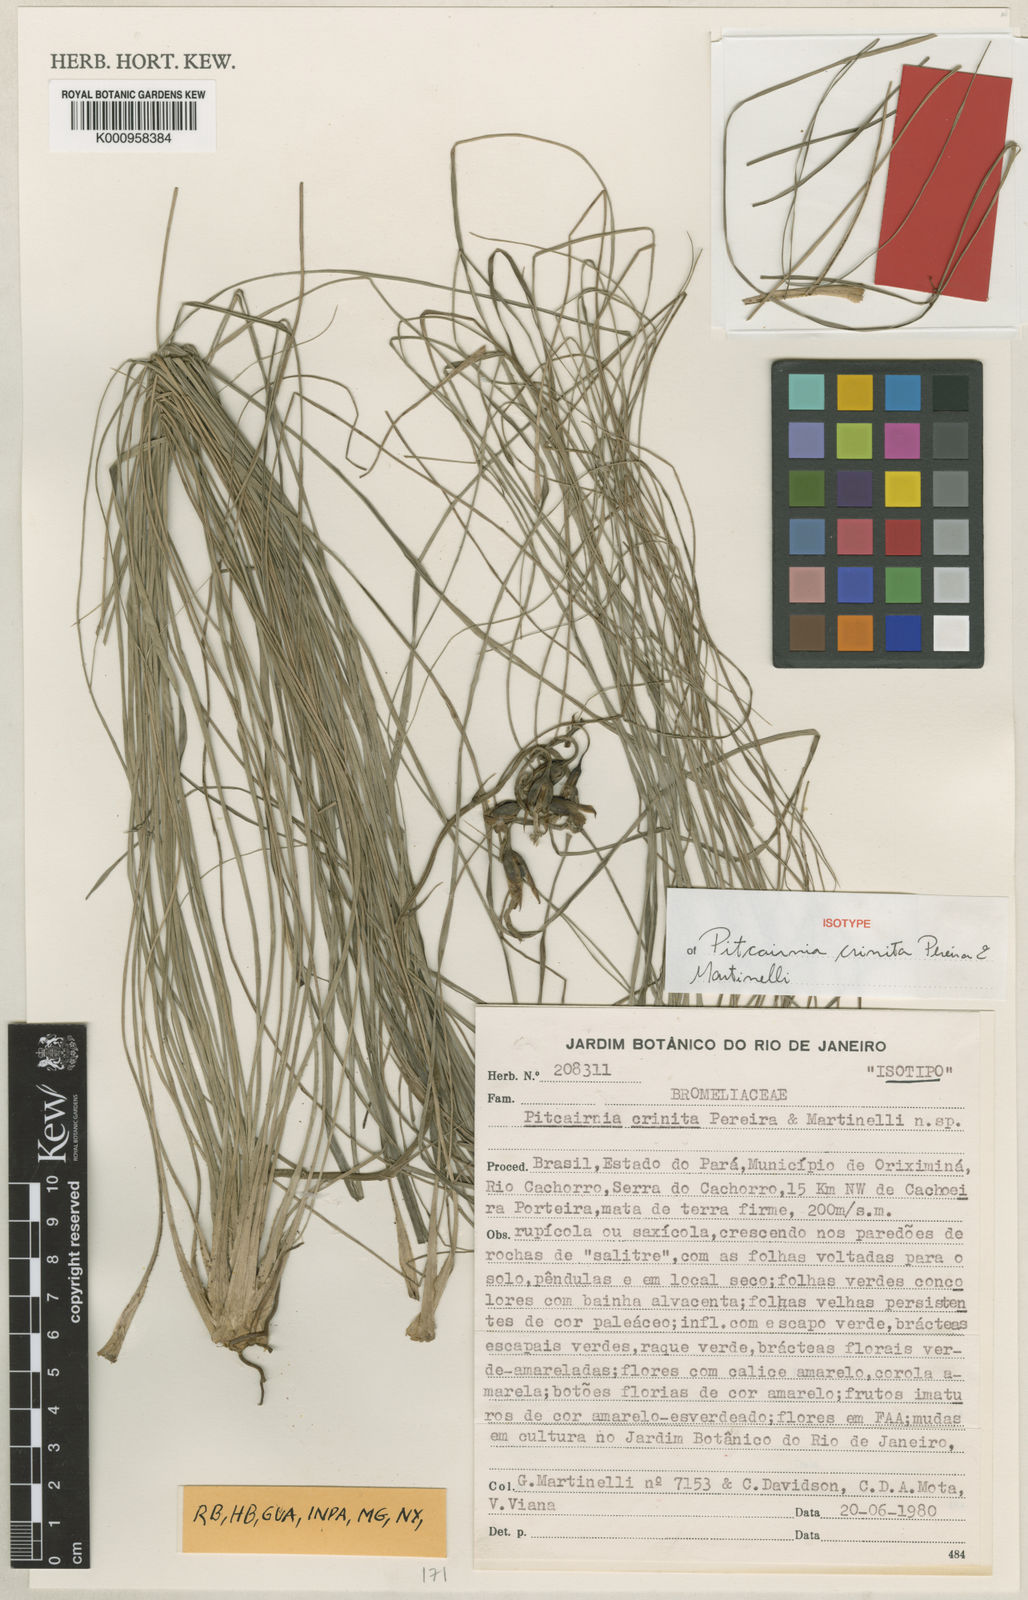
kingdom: Plantae
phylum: Tracheophyta
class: Liliopsida
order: Poales
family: Bromeliaceae
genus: Pitcairnia
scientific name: Pitcairnia crinita
